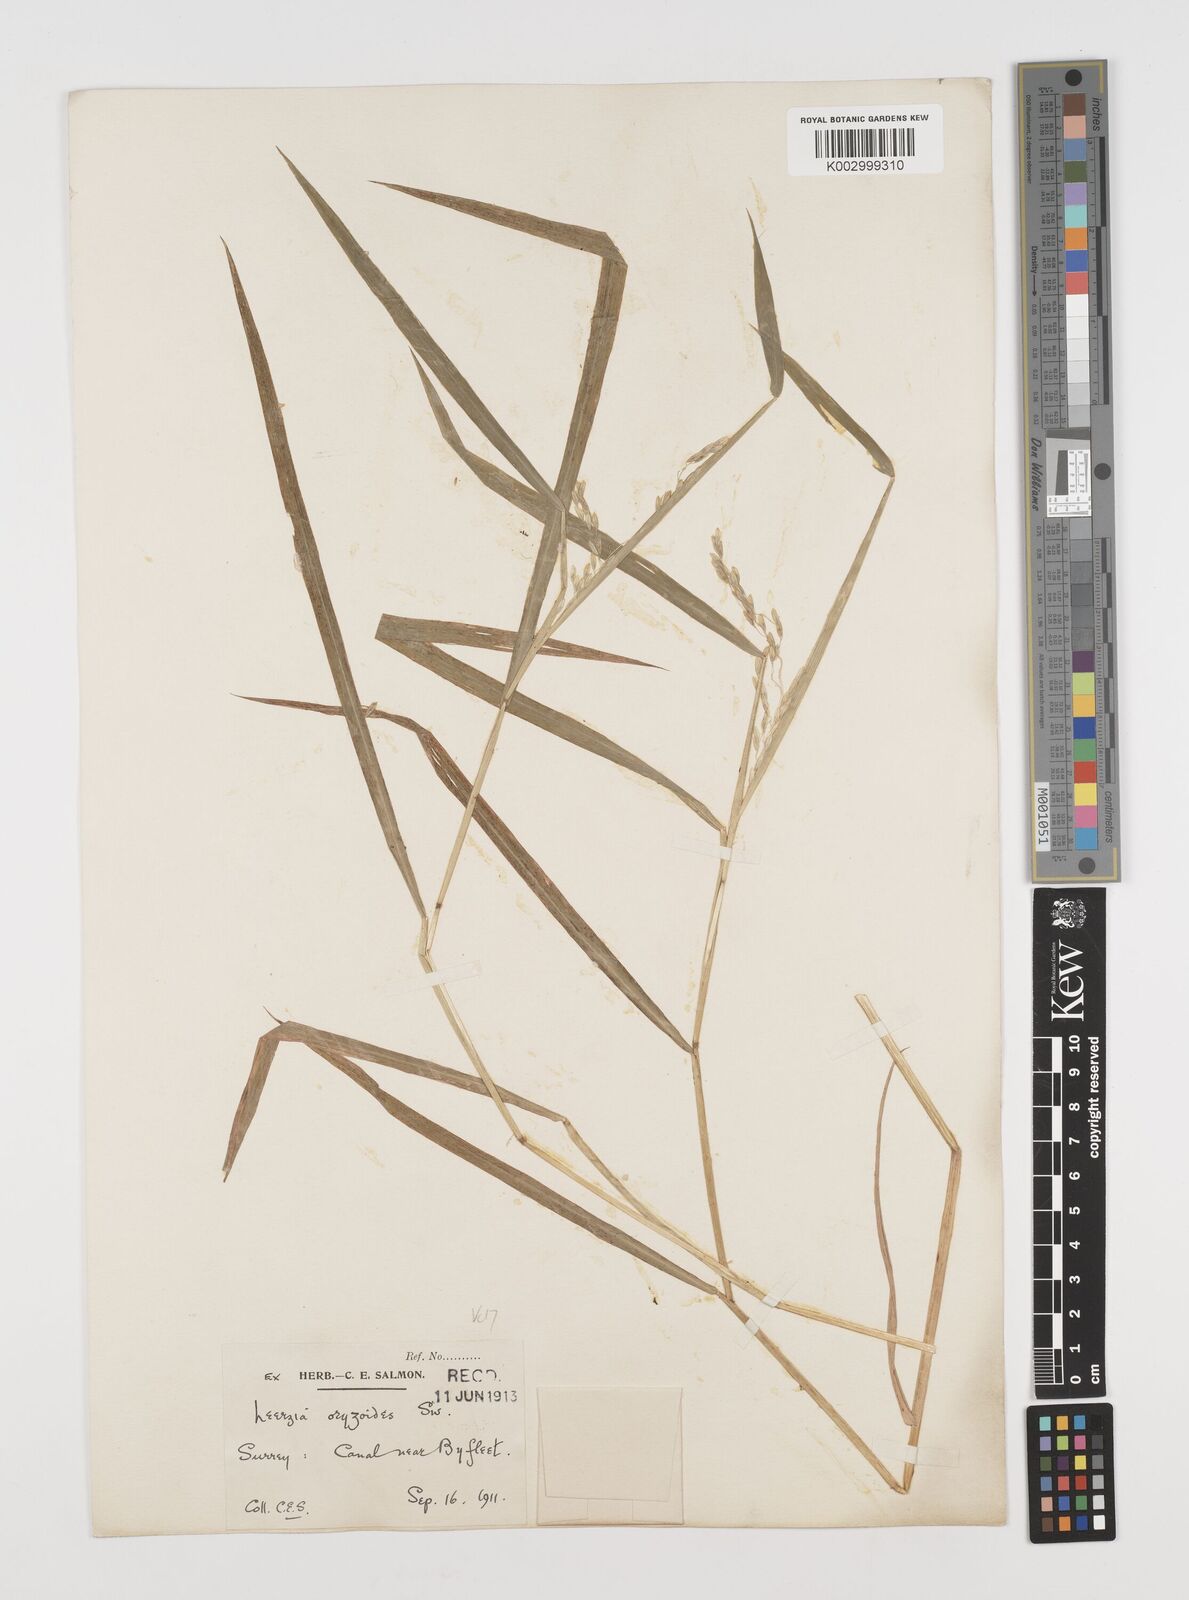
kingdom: Plantae
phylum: Tracheophyta
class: Liliopsida
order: Poales
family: Poaceae
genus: Leersia
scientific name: Leersia oryzoides
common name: Cut-grass
